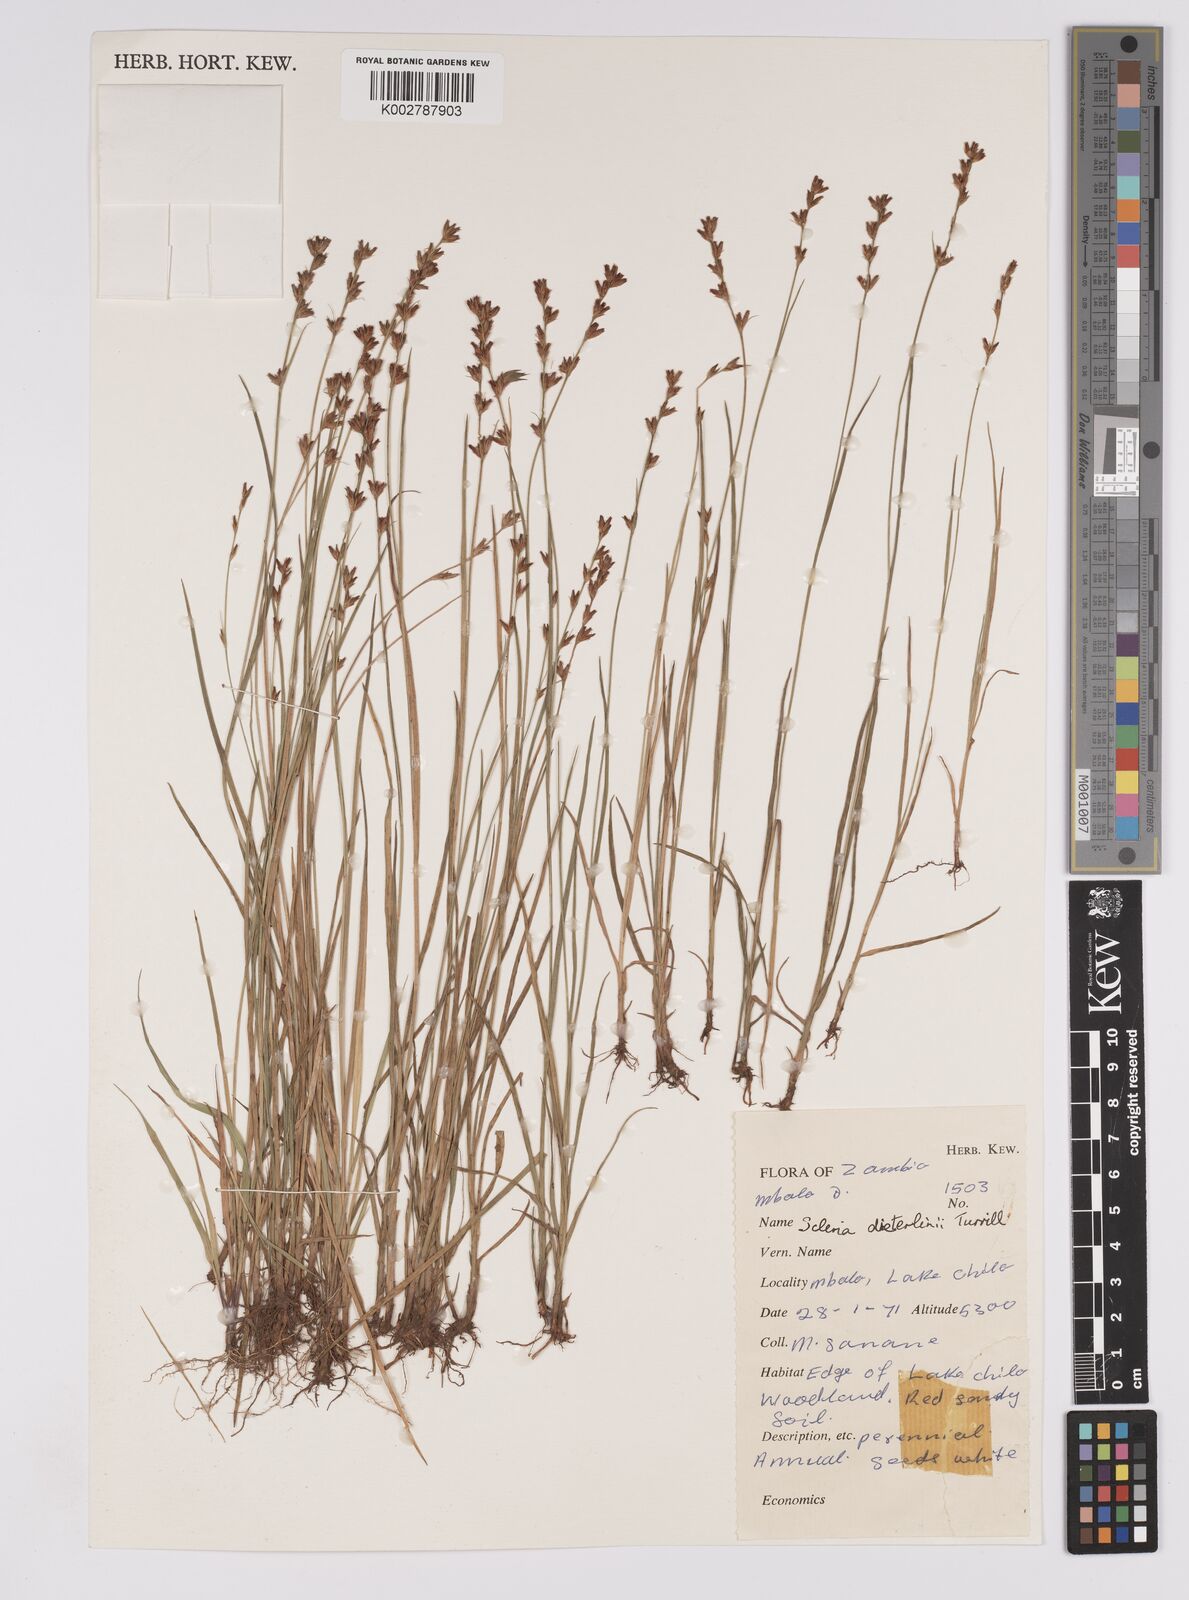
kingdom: Plantae
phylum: Tracheophyta
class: Liliopsida
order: Poales
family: Cyperaceae
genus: Scleria
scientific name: Scleria flexuosa
